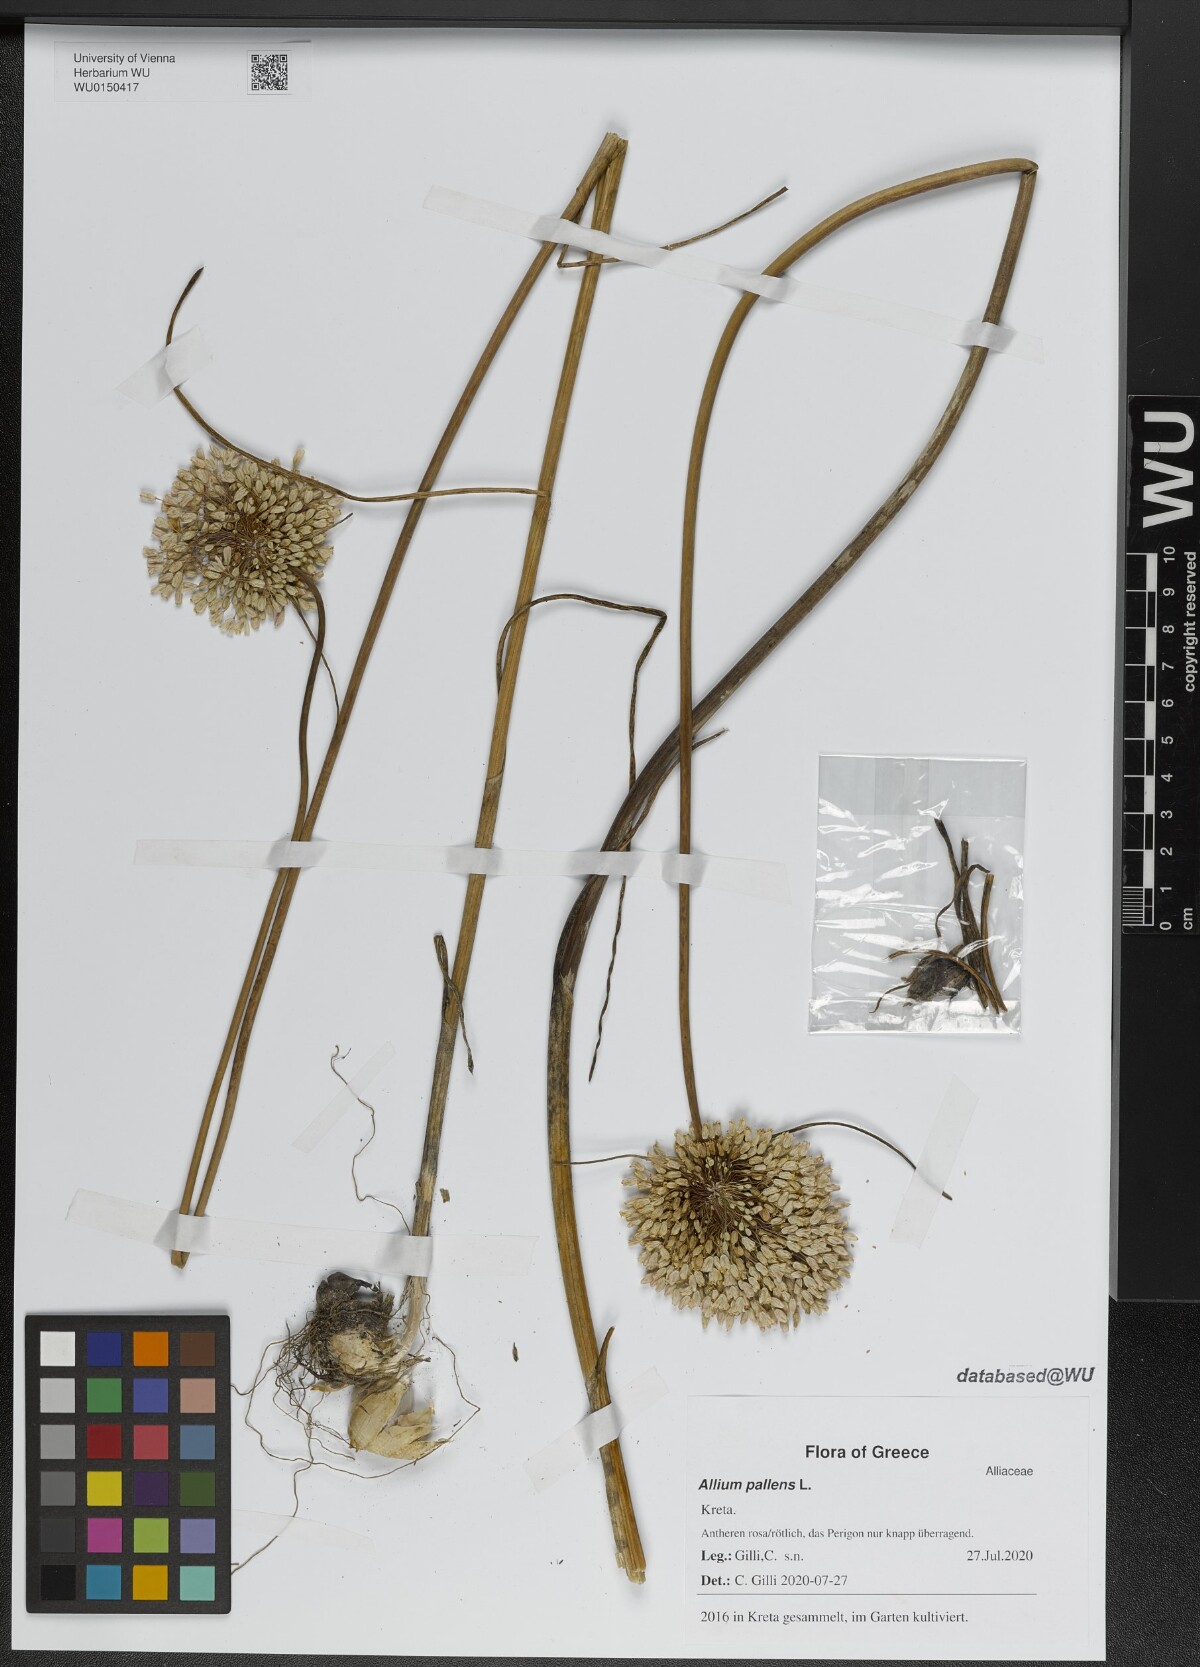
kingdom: Plantae
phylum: Tracheophyta
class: Liliopsida
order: Asparagales
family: Amaryllidaceae
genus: Allium
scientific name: Allium pallens
